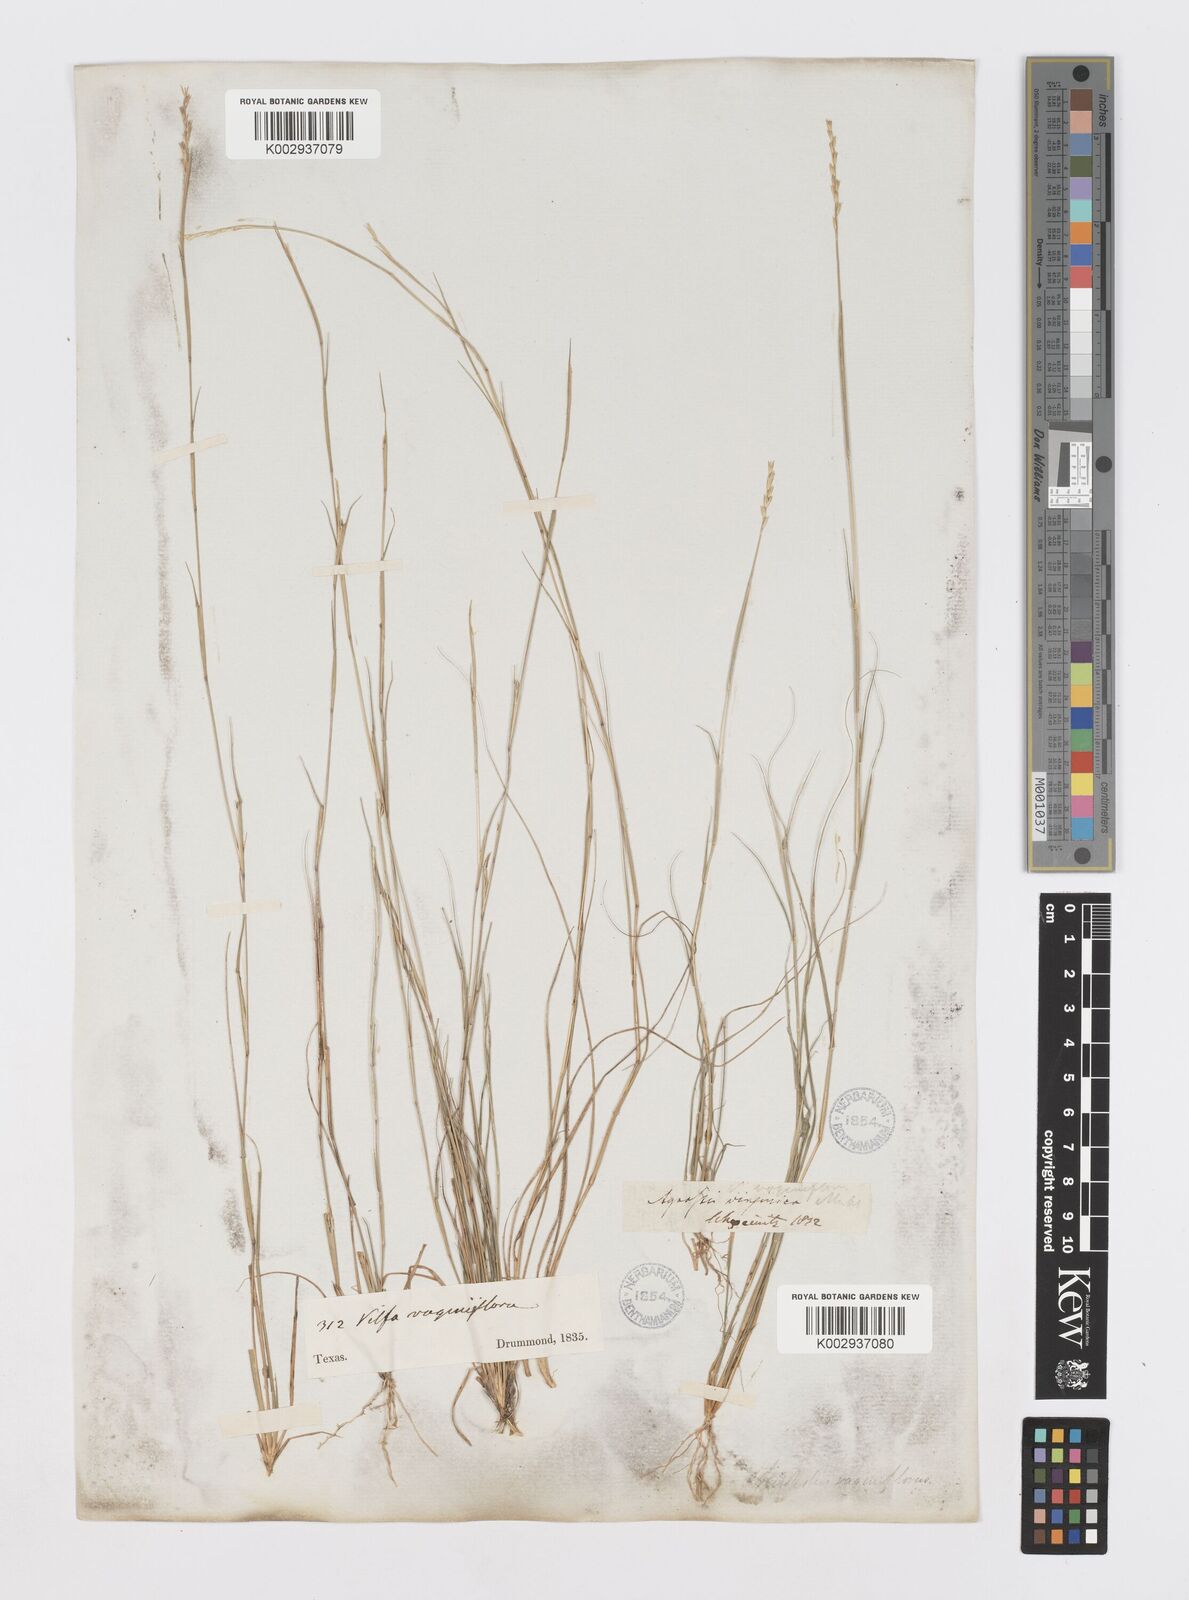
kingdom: Plantae
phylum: Tracheophyta
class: Liliopsida
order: Poales
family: Poaceae
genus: Sporobolus
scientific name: Sporobolus vaginiflorus
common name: Poverty dropseed
